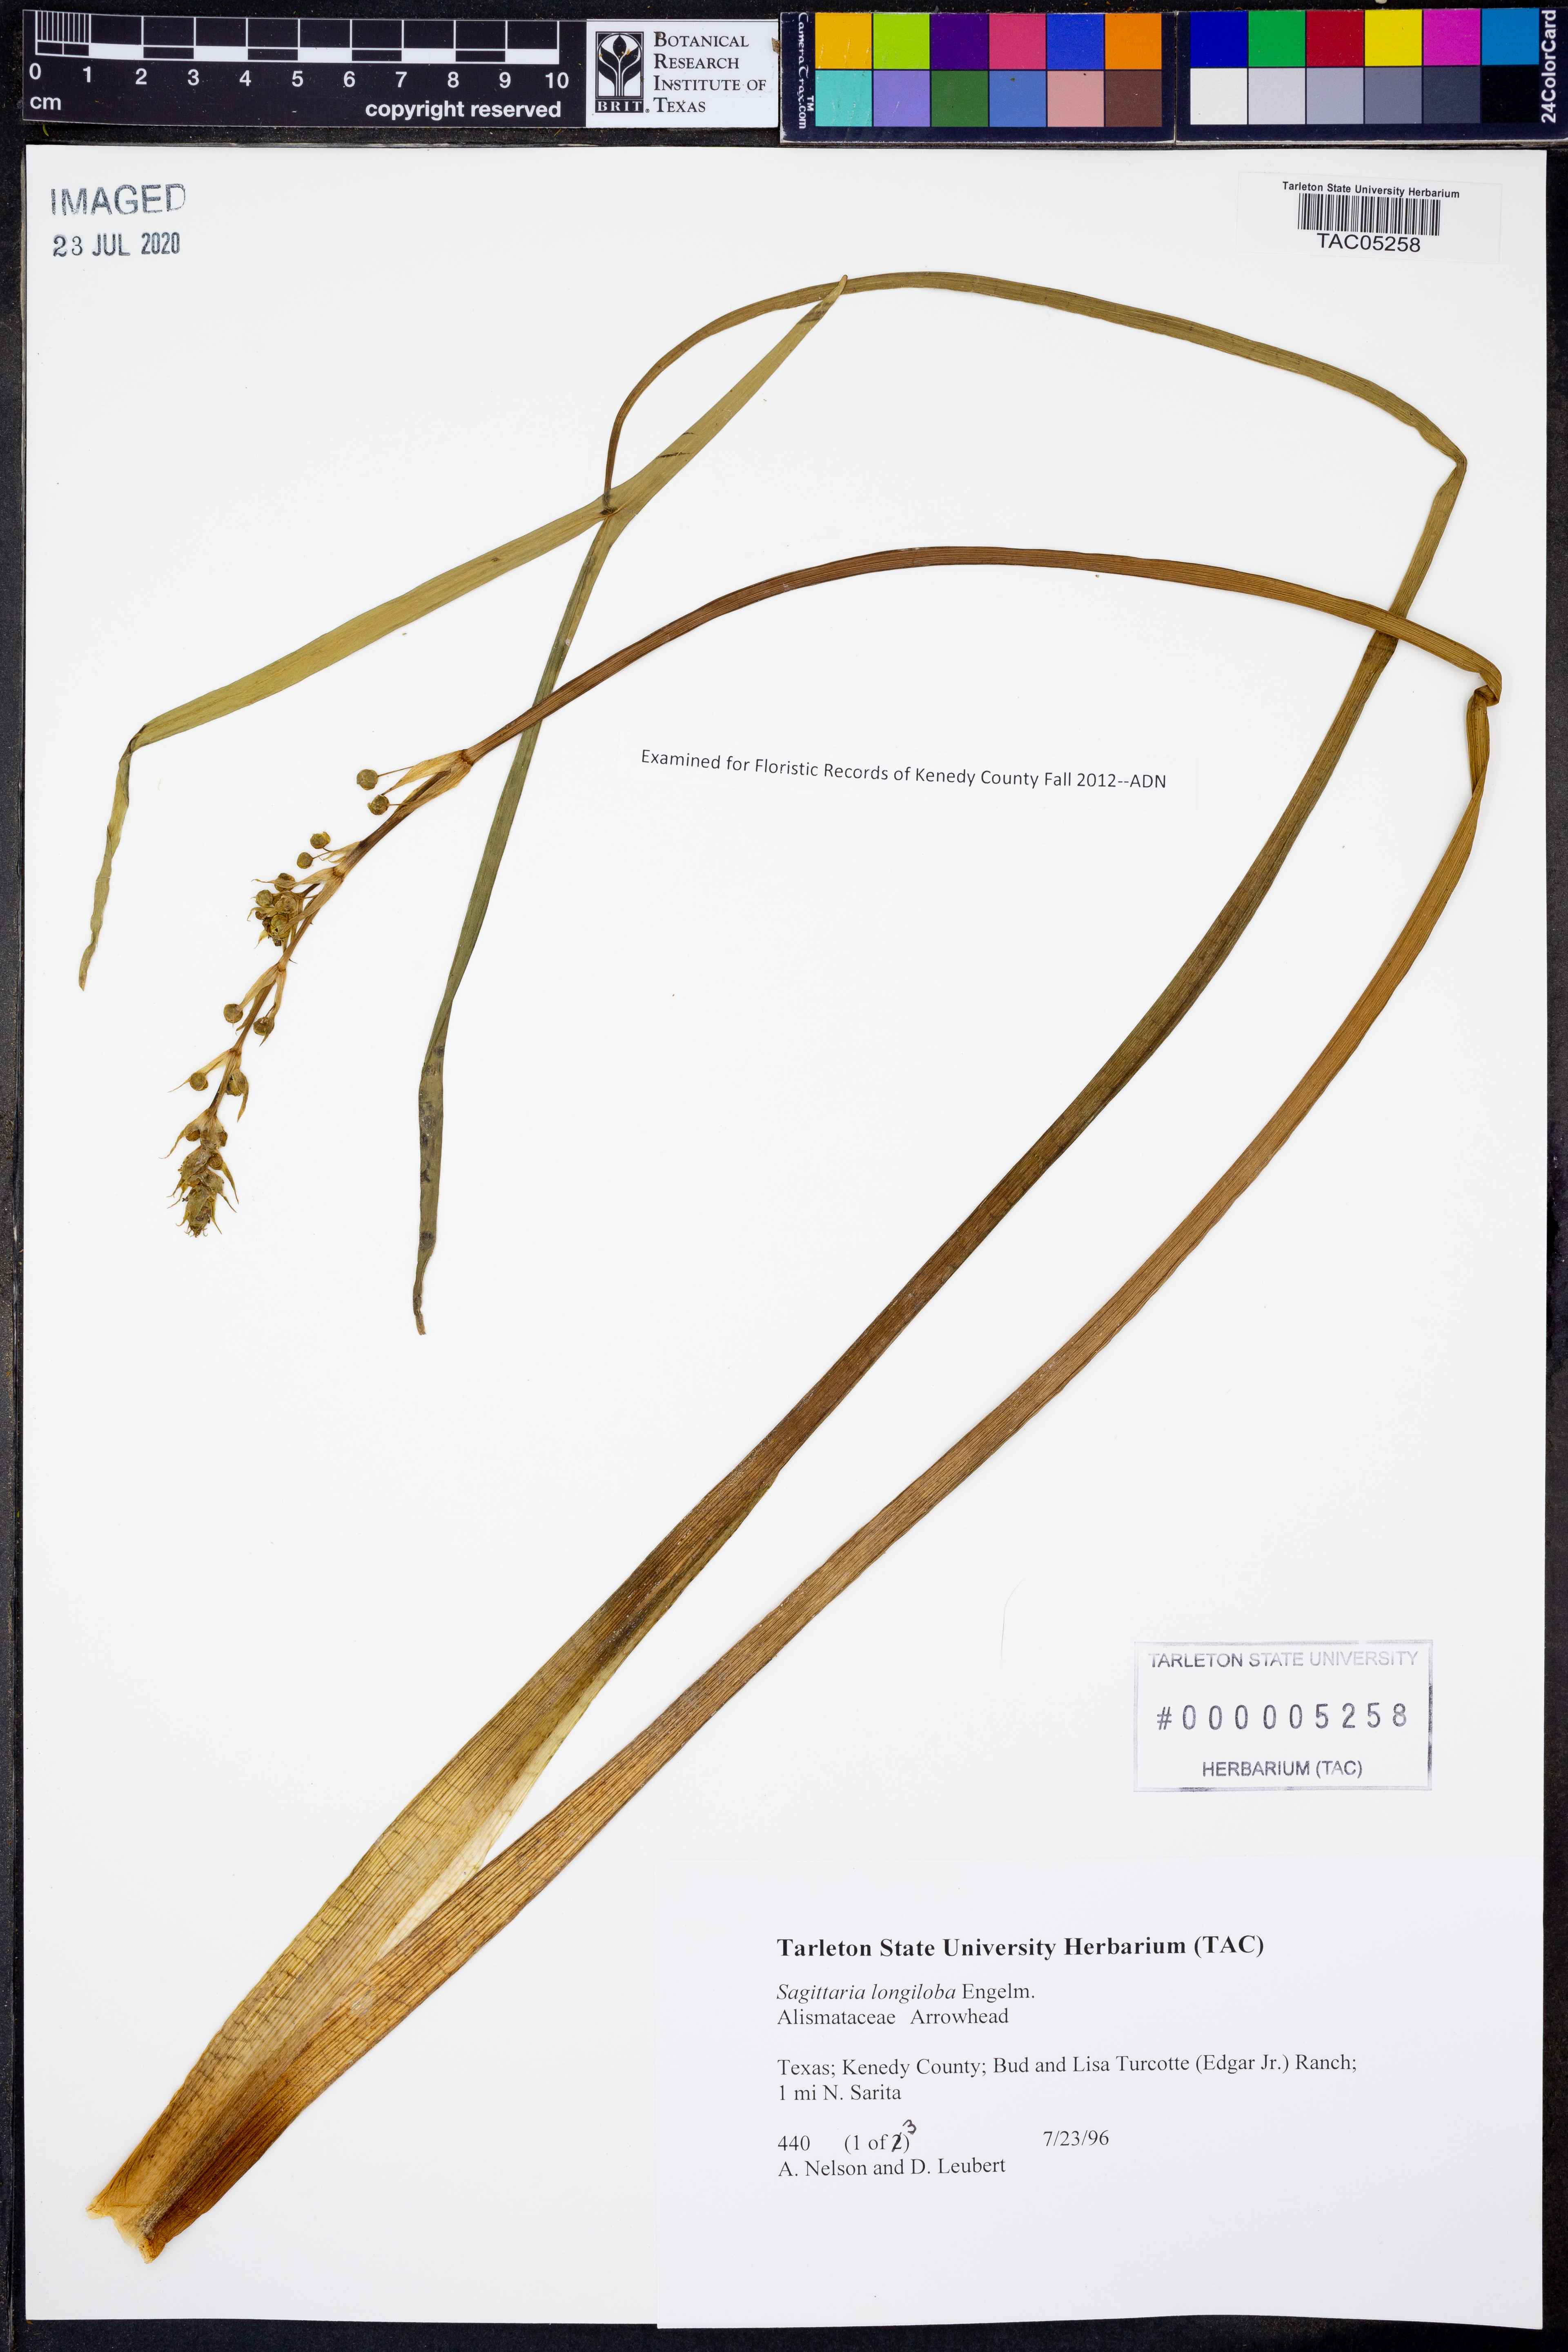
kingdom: Plantae
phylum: Tracheophyta
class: Liliopsida
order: Alismatales
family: Alismataceae
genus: Sagittaria
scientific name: Sagittaria longiloba
